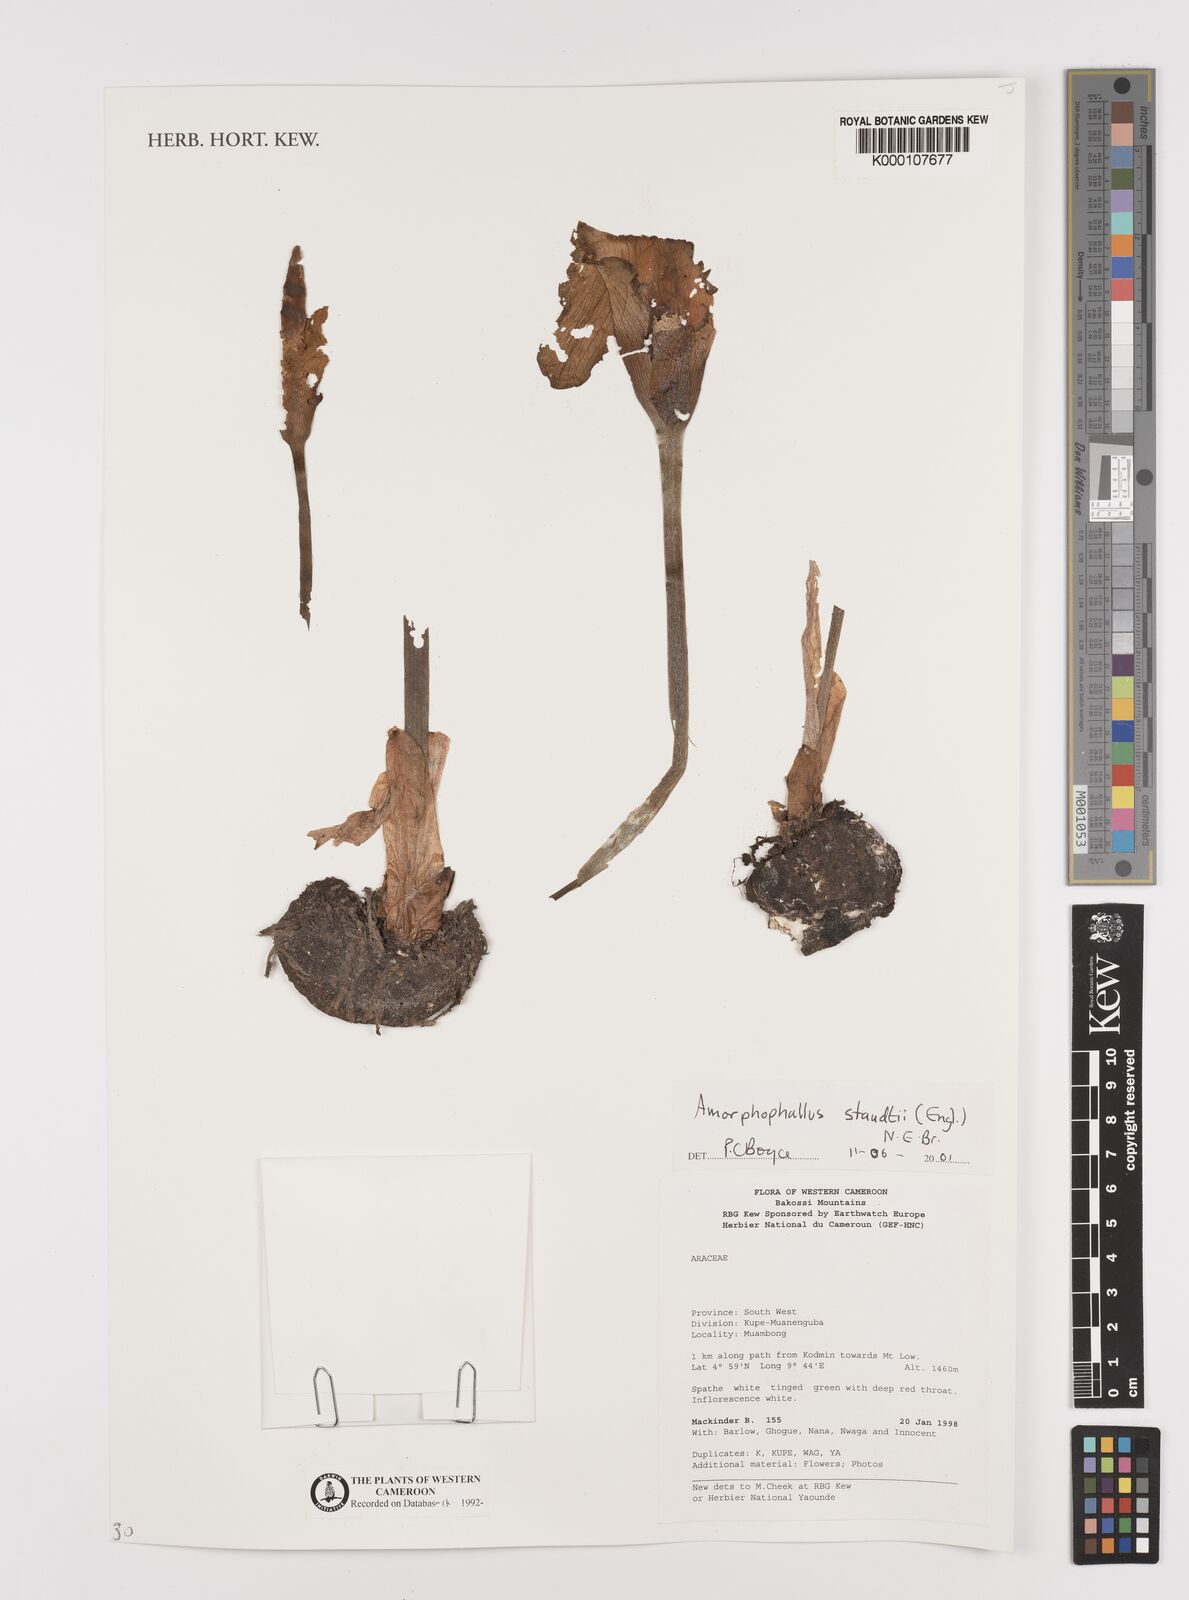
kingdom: Plantae
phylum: Tracheophyta
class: Liliopsida
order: Alismatales
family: Araceae
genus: Amorphophallus
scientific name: Amorphophallus staudtii
